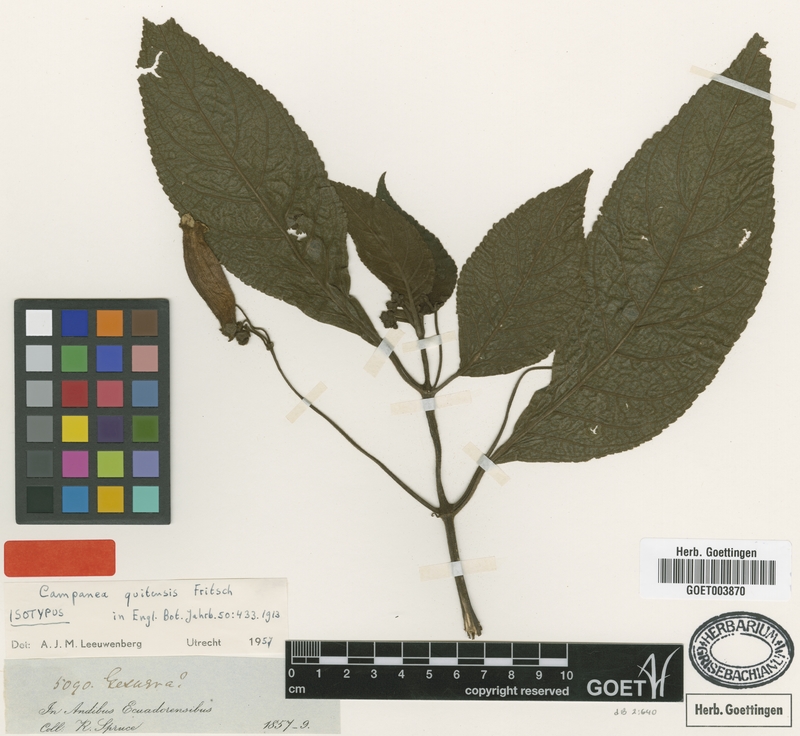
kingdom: Plantae
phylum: Tracheophyta
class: Magnoliopsida
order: Lamiales
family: Gesneriaceae
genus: Kohleria
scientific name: Kohleria Campanea quitensis
